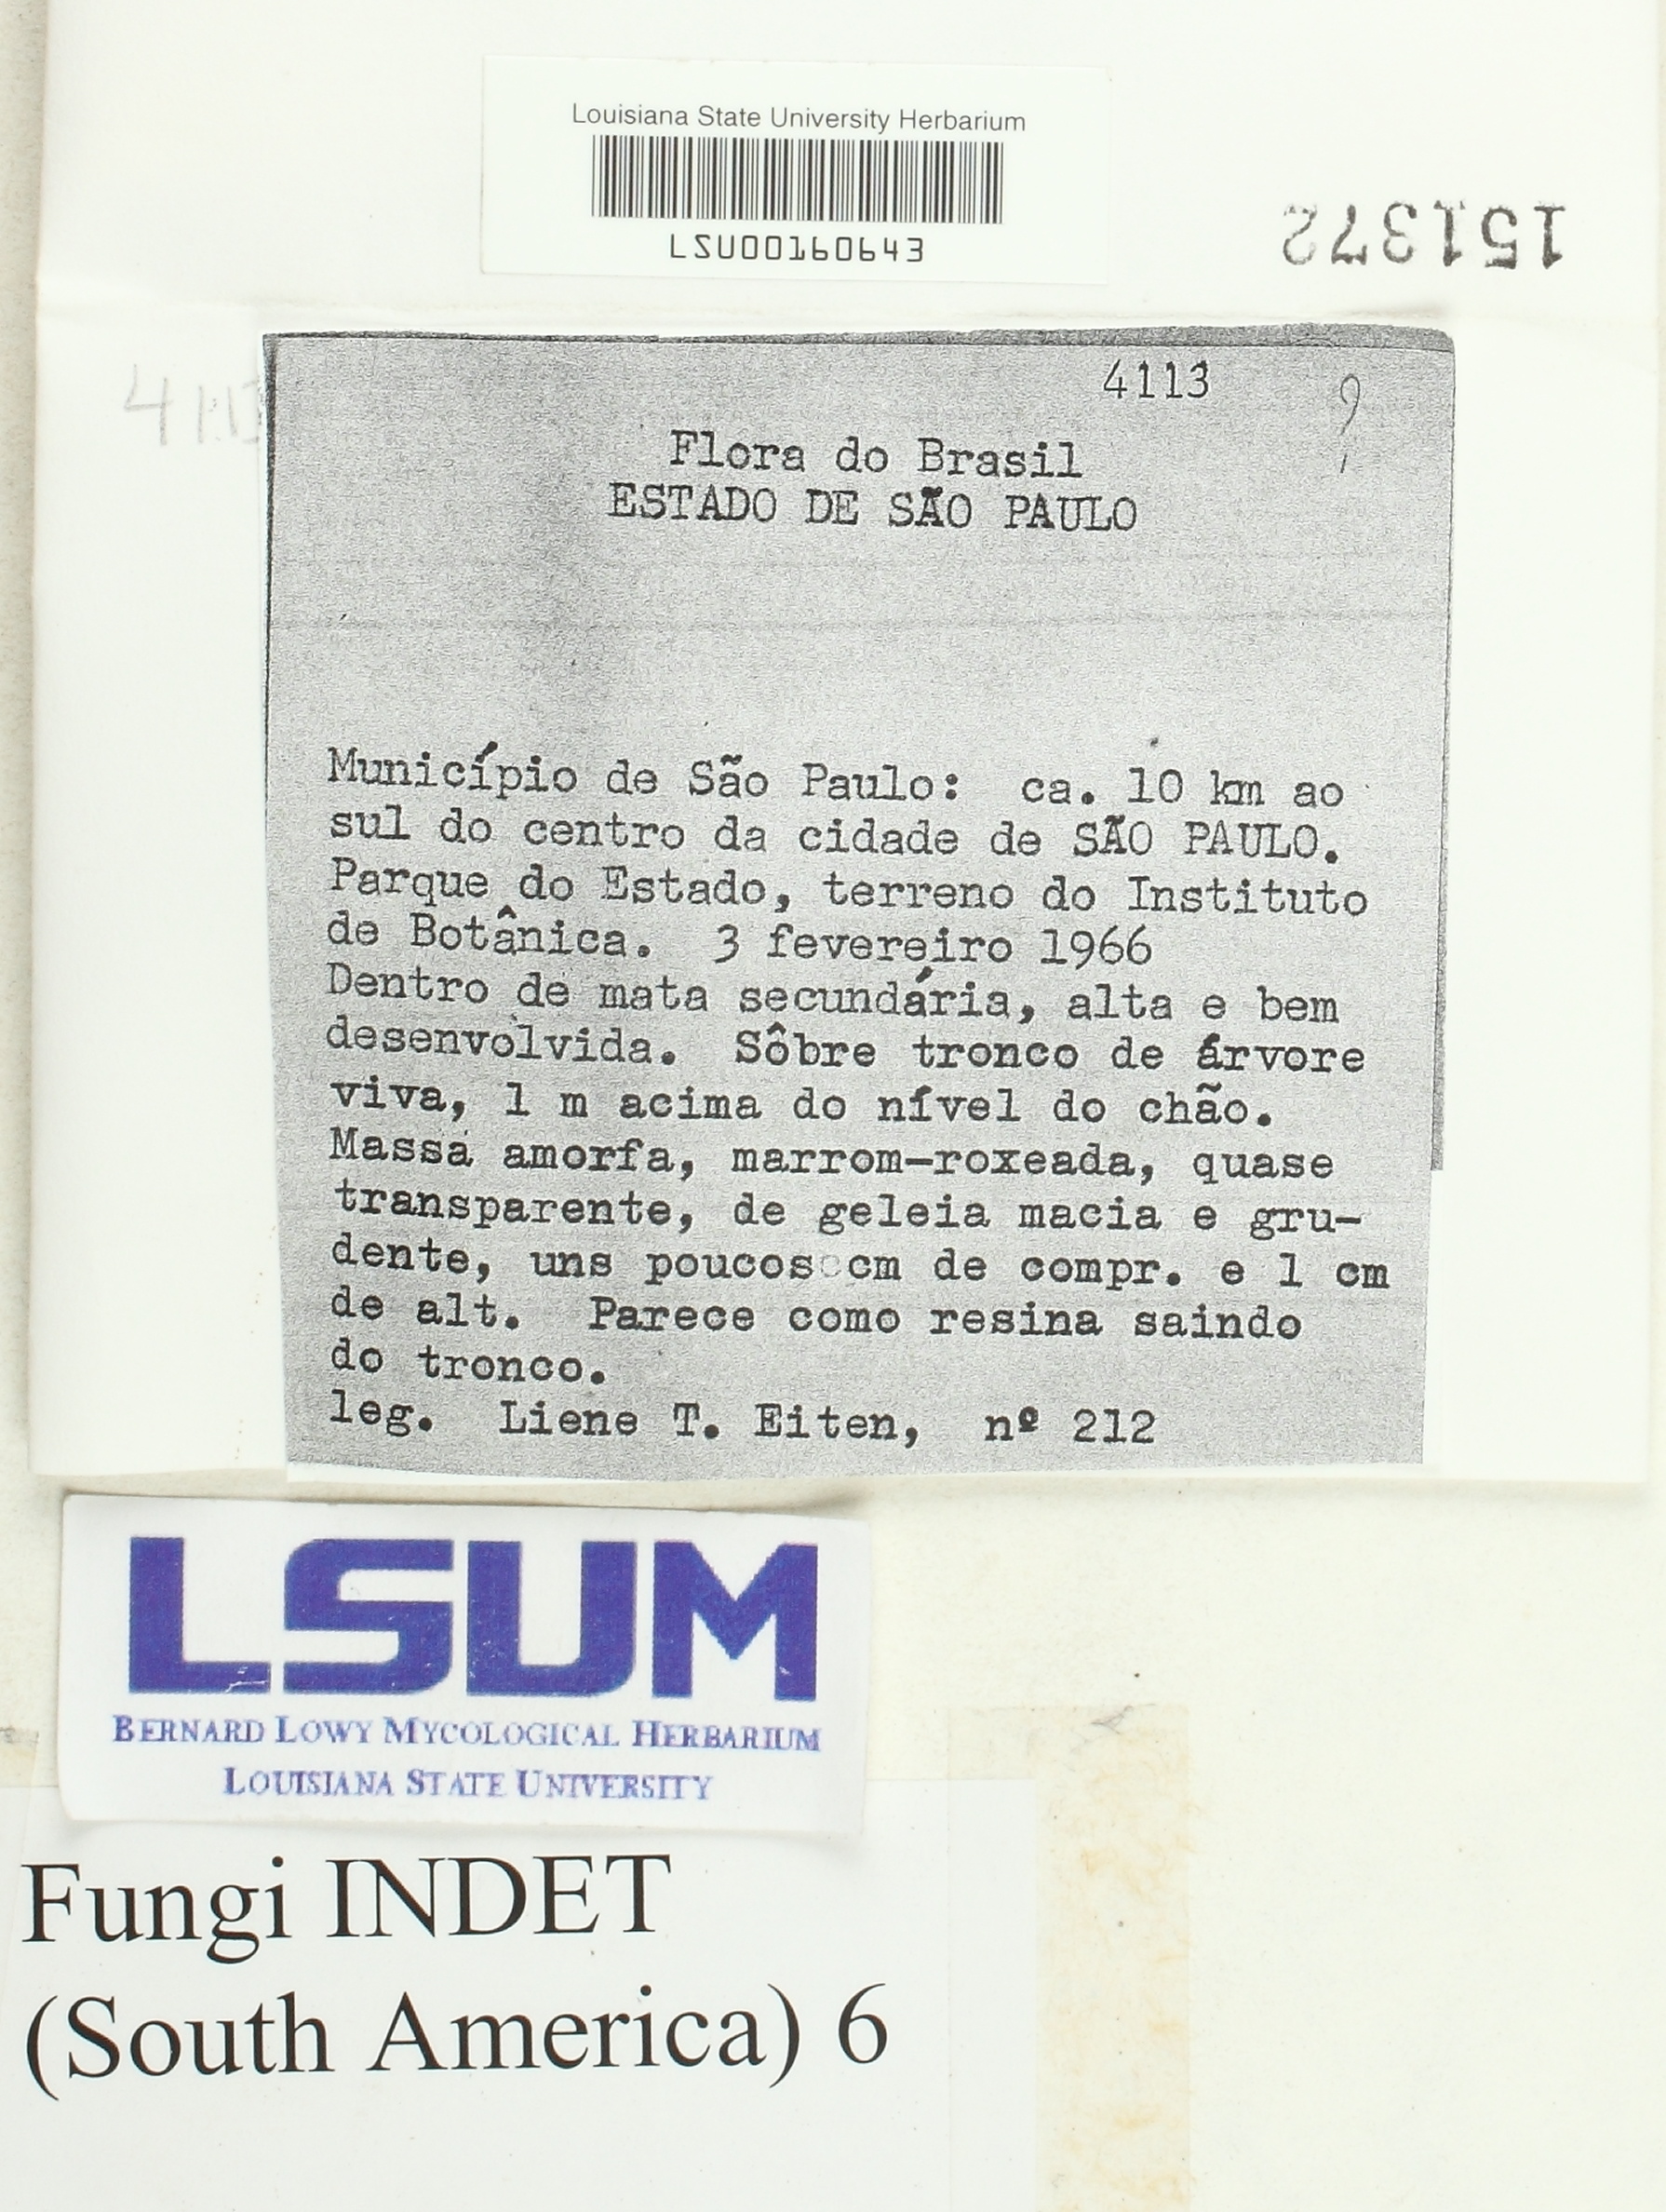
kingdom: Fungi
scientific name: Fungi
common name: Fungi
